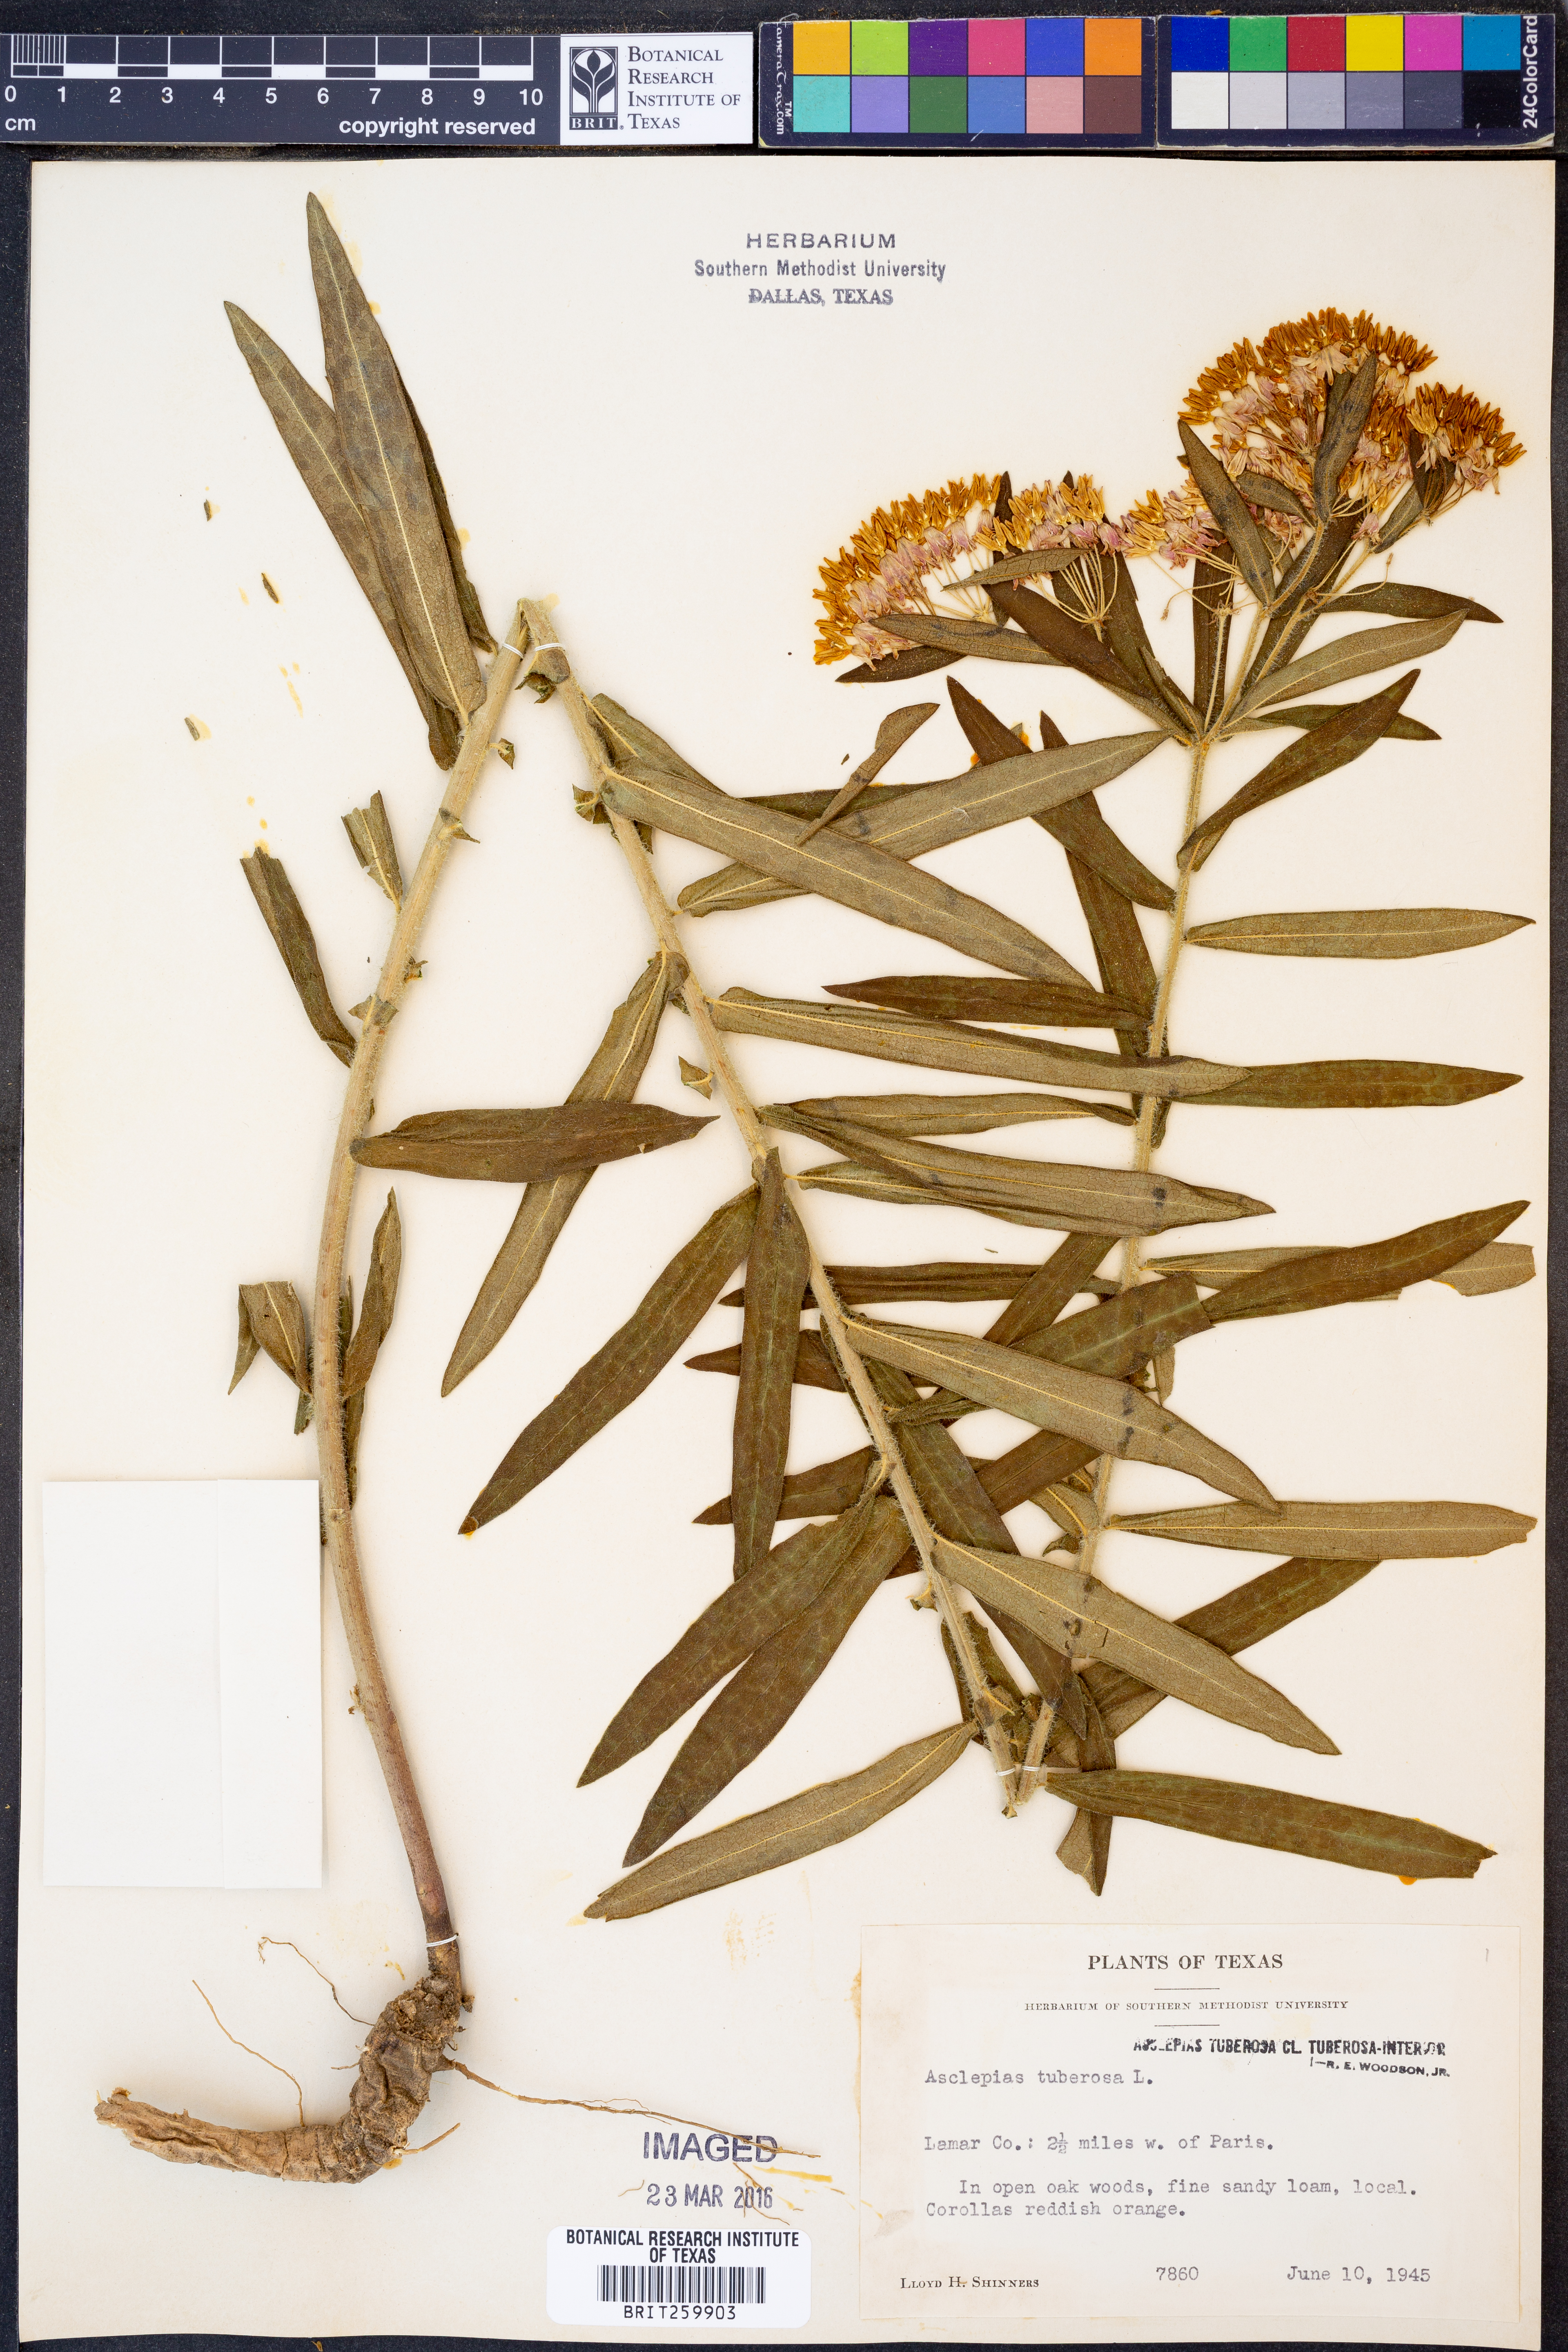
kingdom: Plantae
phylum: Tracheophyta
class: Magnoliopsida
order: Gentianales
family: Apocynaceae
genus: Asclepias
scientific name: Asclepias tuberosa
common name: Butterfly milkweed
